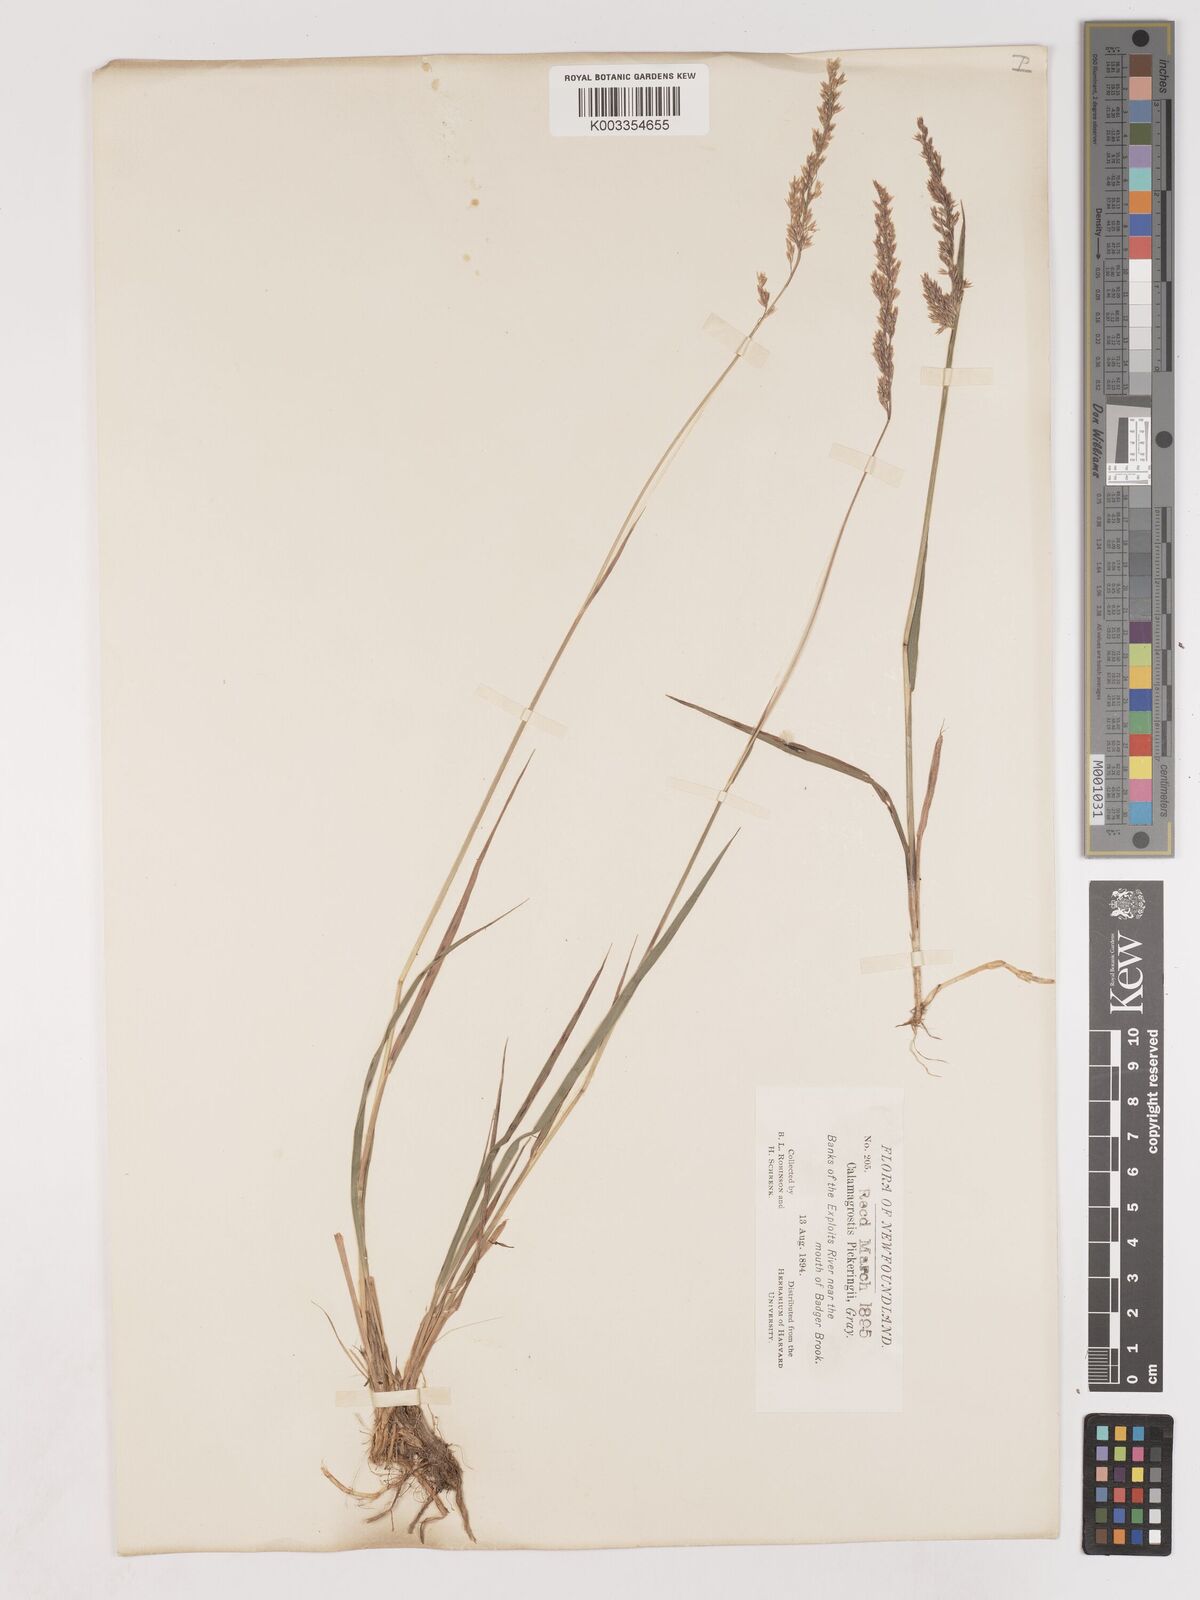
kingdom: Plantae
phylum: Tracheophyta
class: Liliopsida
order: Poales
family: Poaceae
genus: Calamagrostis
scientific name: Calamagrostis pickeringii
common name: Pickering's reed bentgrass
